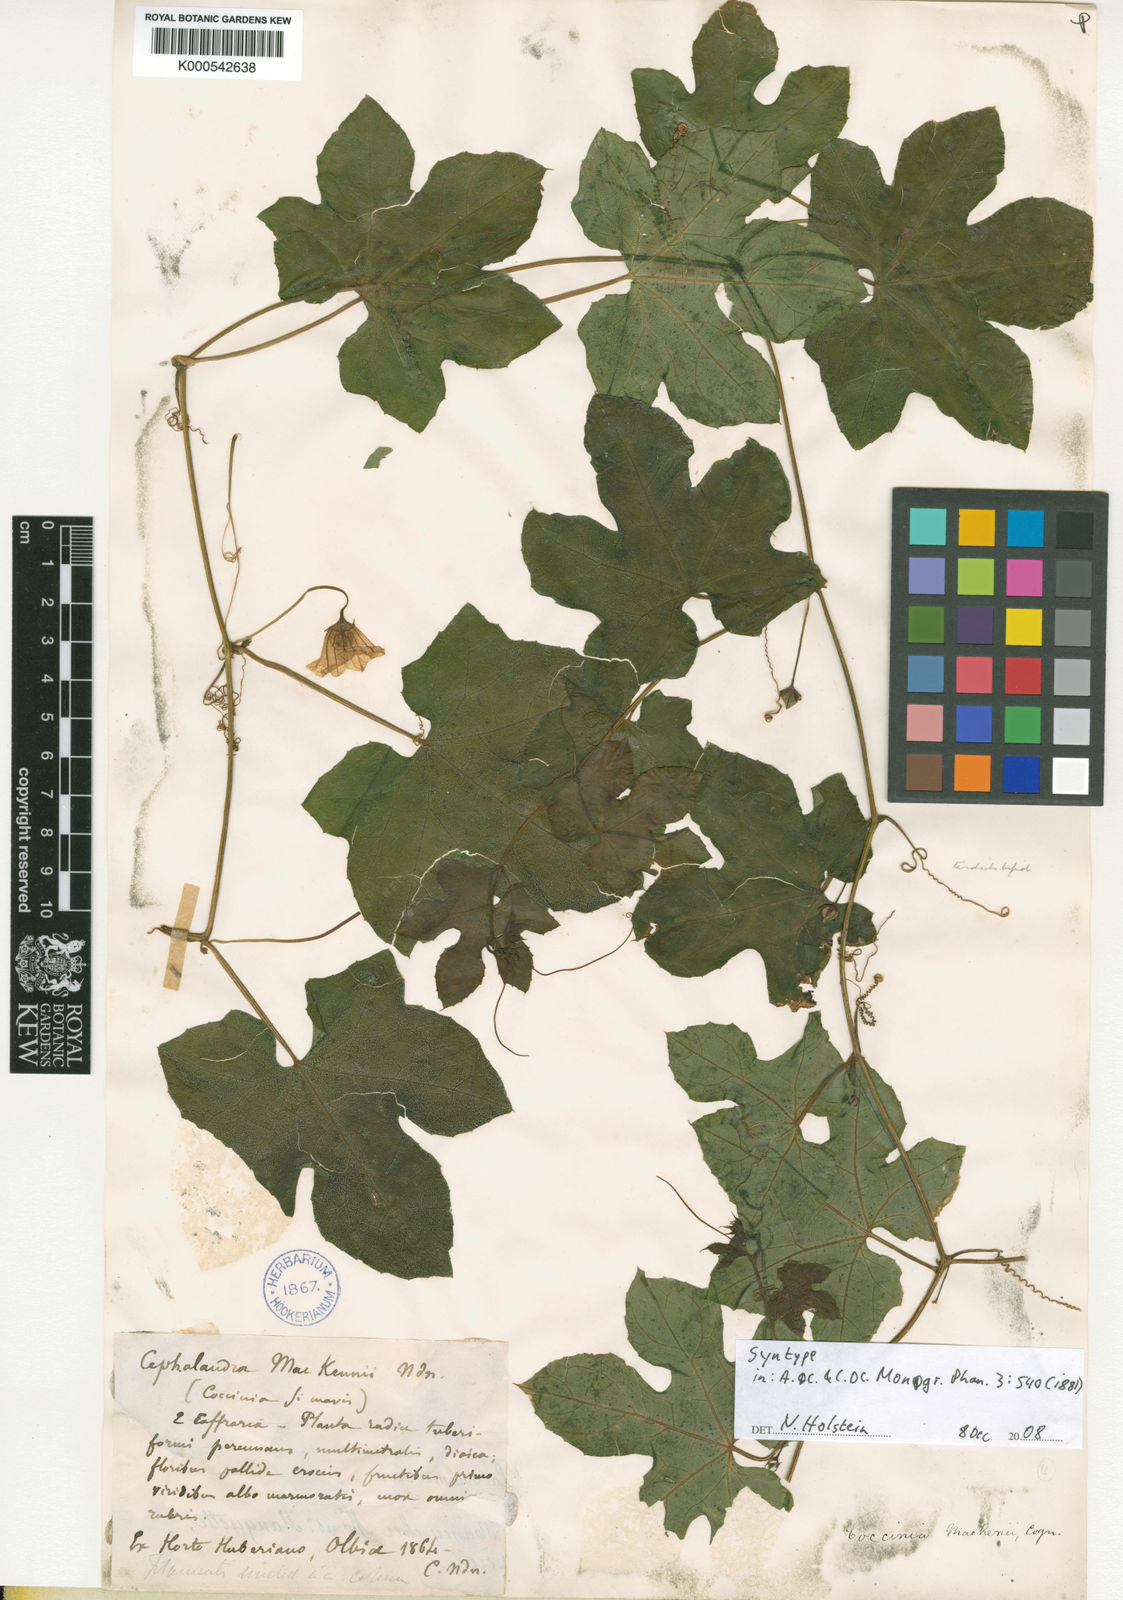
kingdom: Plantae
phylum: Tracheophyta
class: Magnoliopsida
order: Cucurbitales
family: Cucurbitaceae
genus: Coccinia
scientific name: Coccinia
